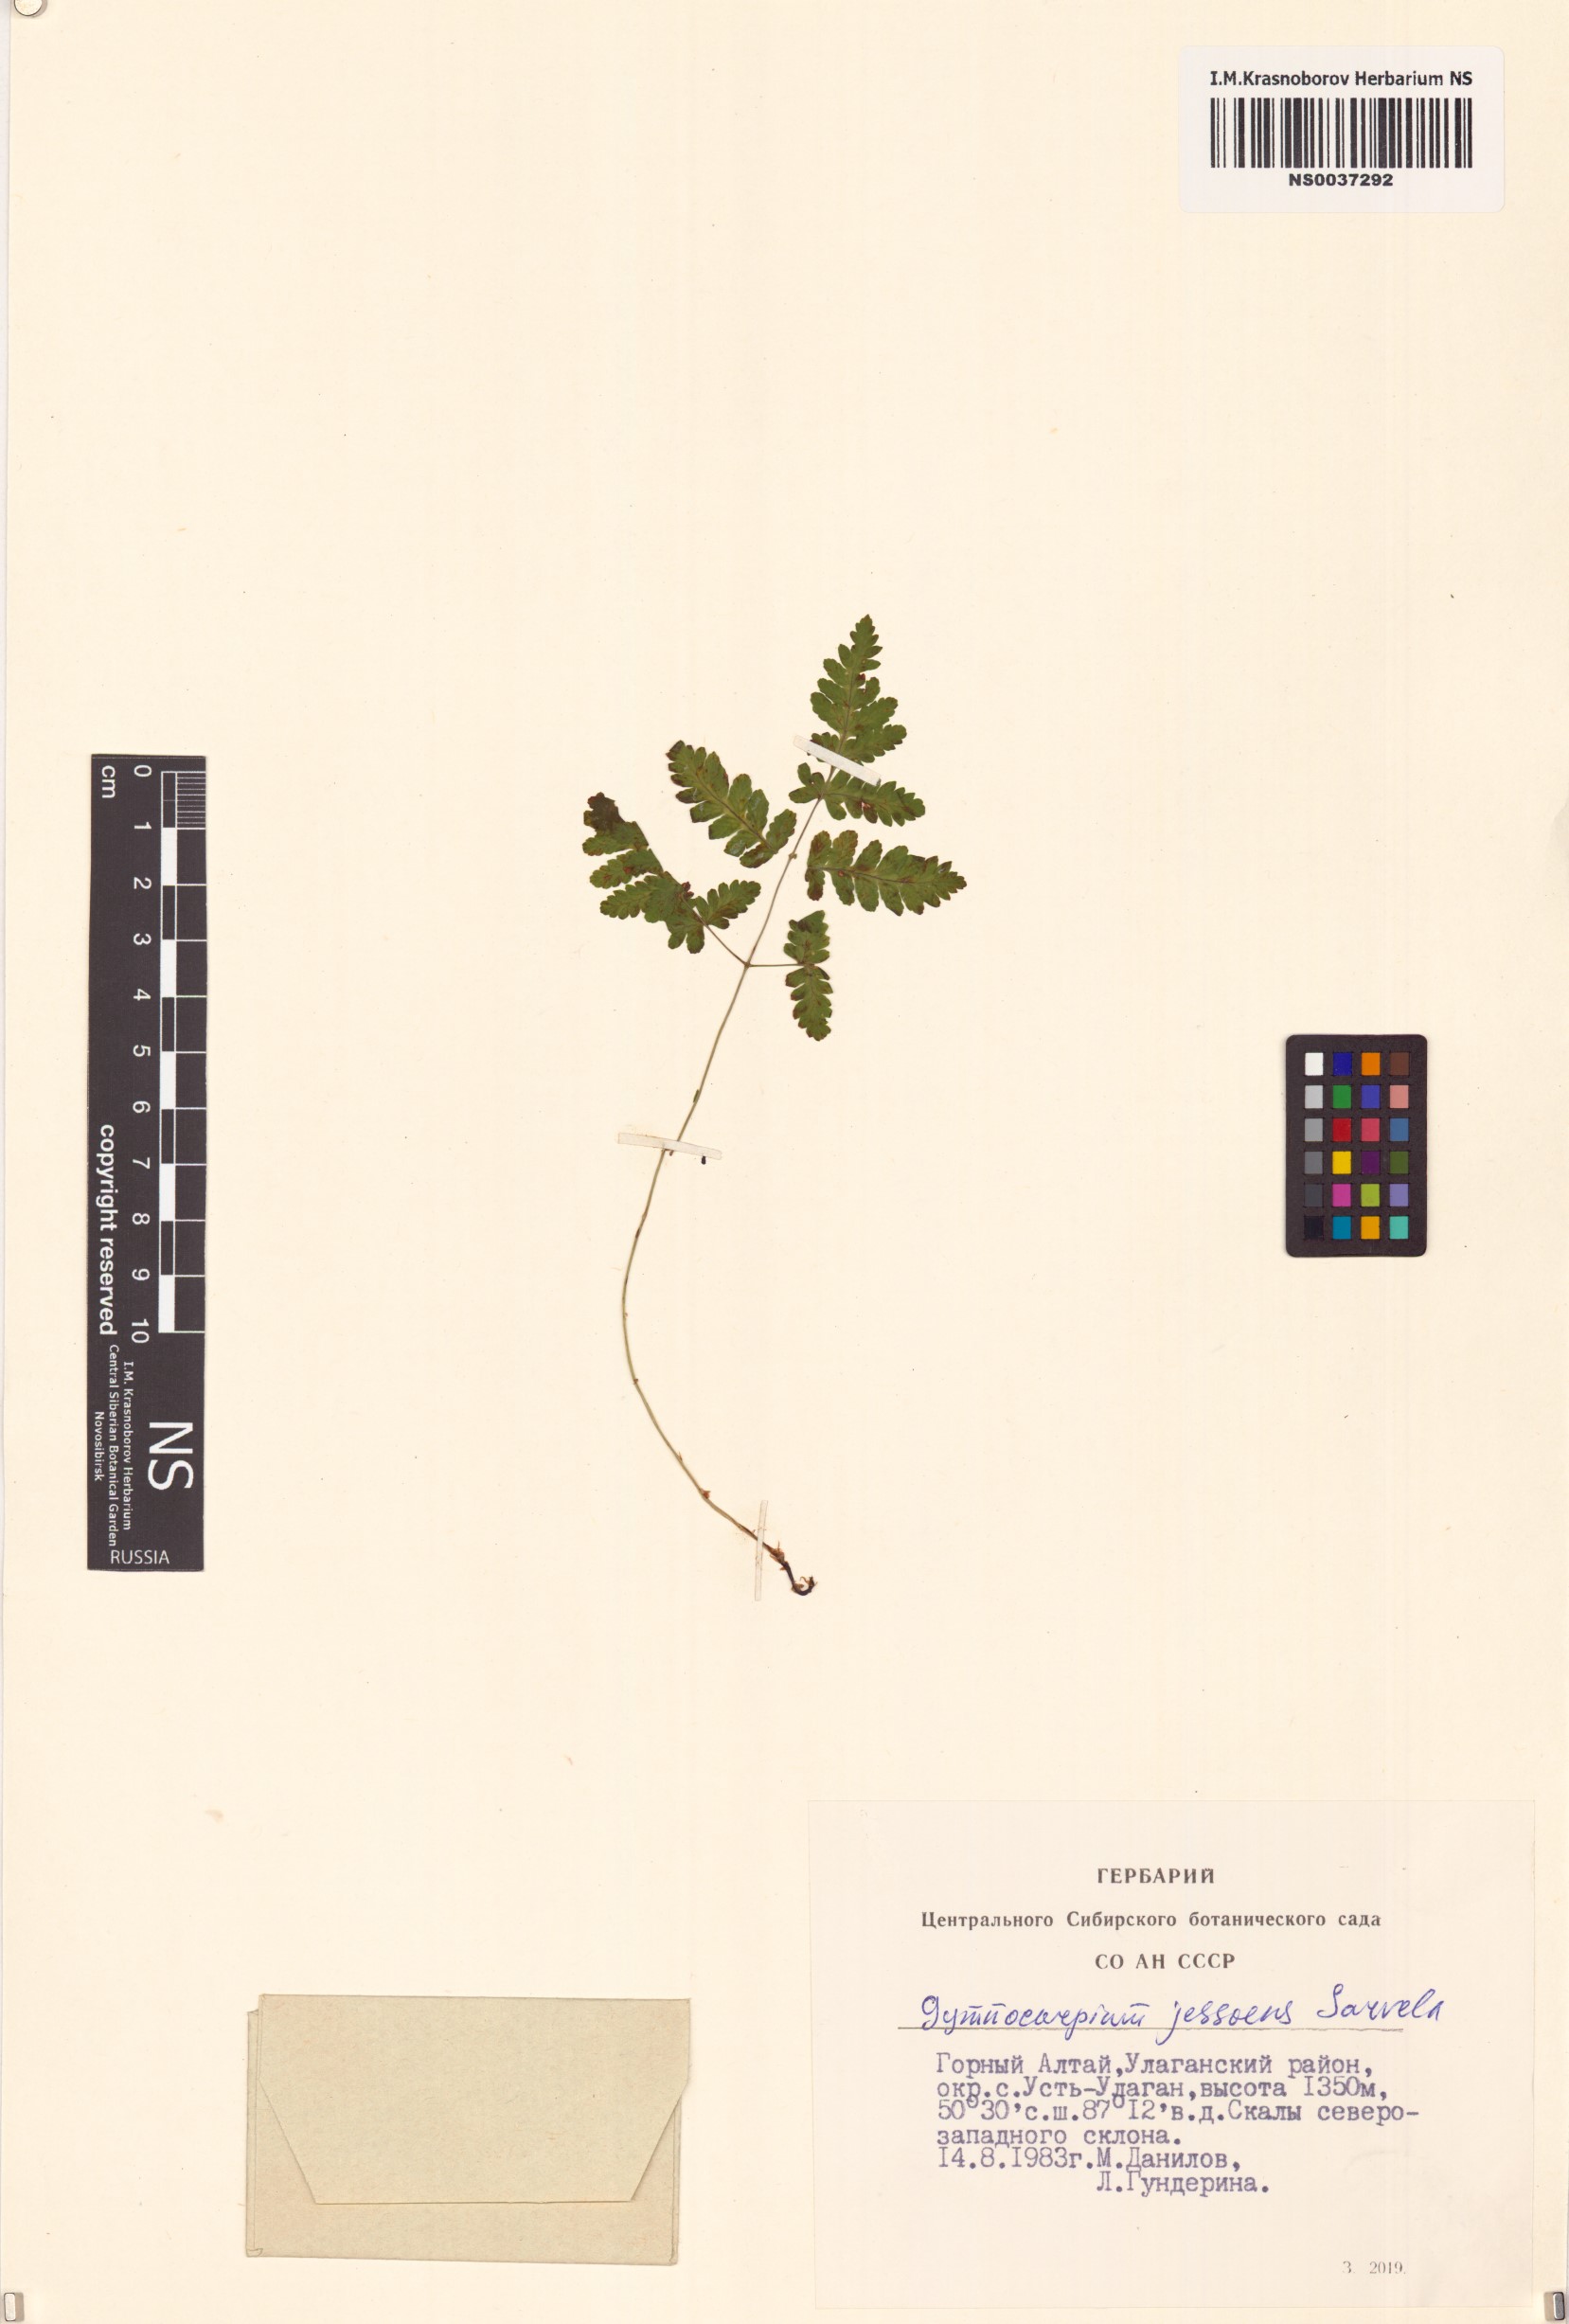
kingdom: Plantae
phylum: Tracheophyta
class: Polypodiopsida
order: Polypodiales
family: Cystopteridaceae
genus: Gymnocarpium
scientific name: Gymnocarpium jessoense
